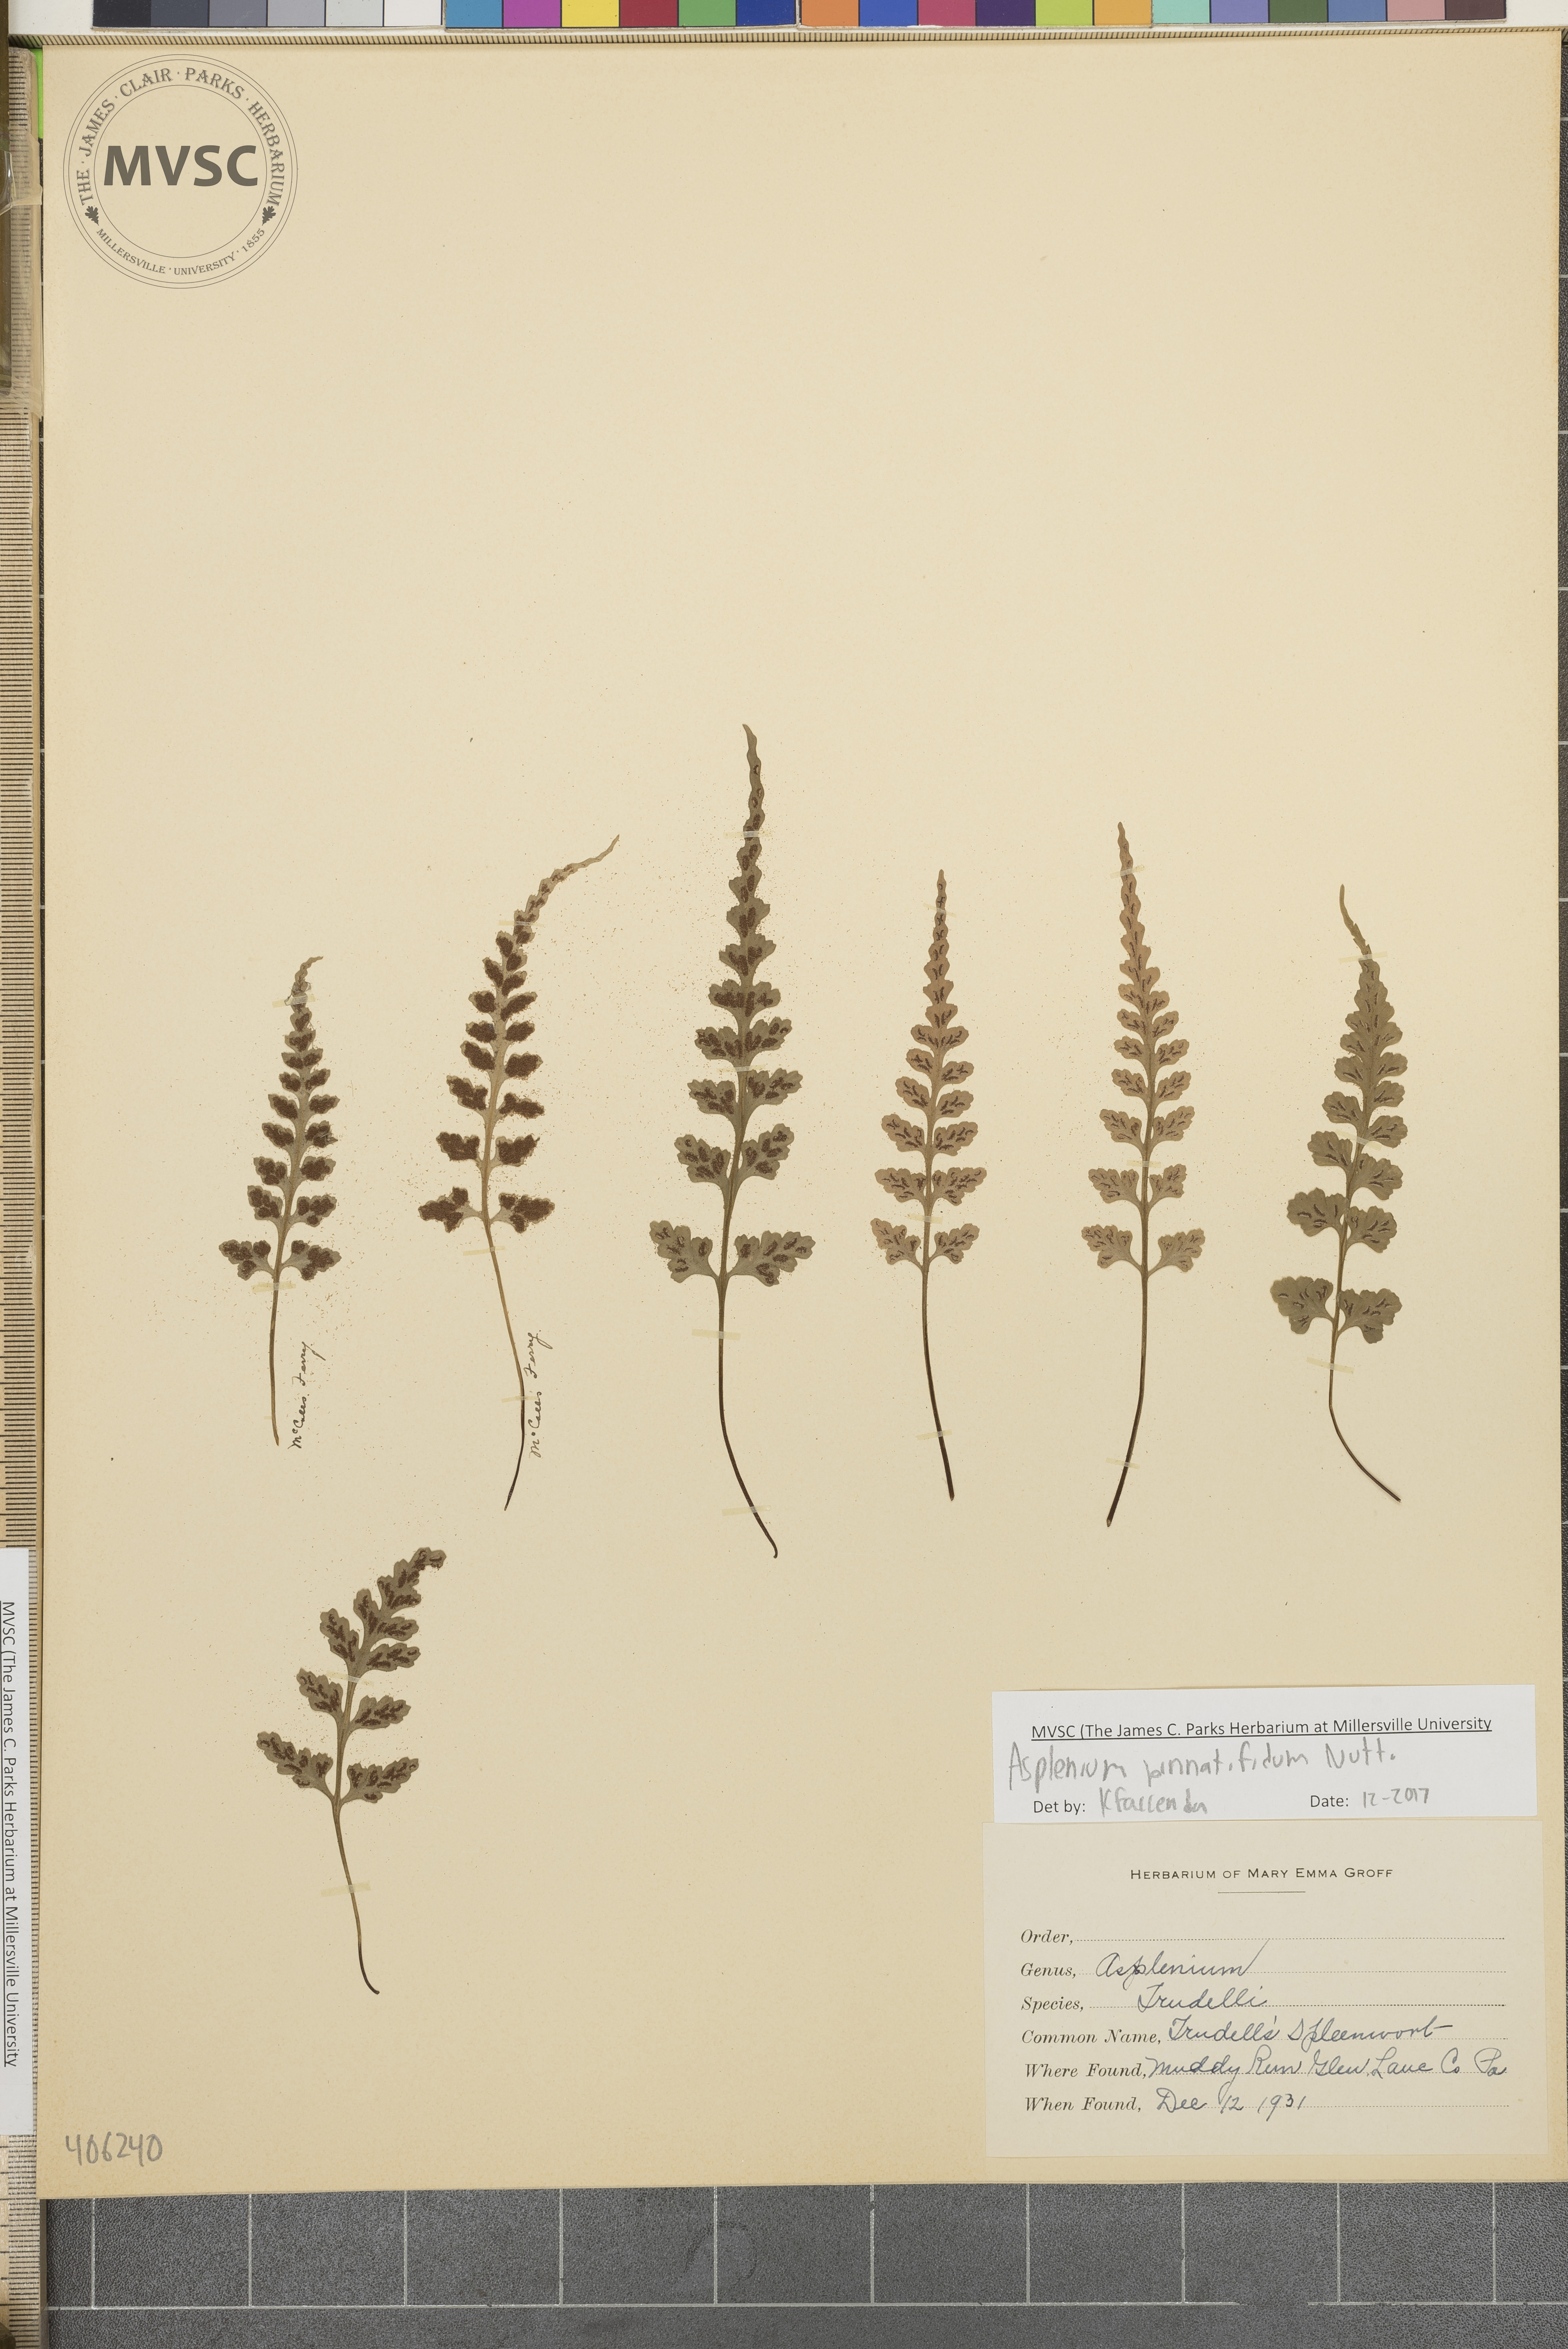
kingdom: Plantae
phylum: Tracheophyta
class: Polypodiopsida
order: Polypodiales
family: Aspleniaceae
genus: Asplenium
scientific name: Asplenium pinnatifidum
